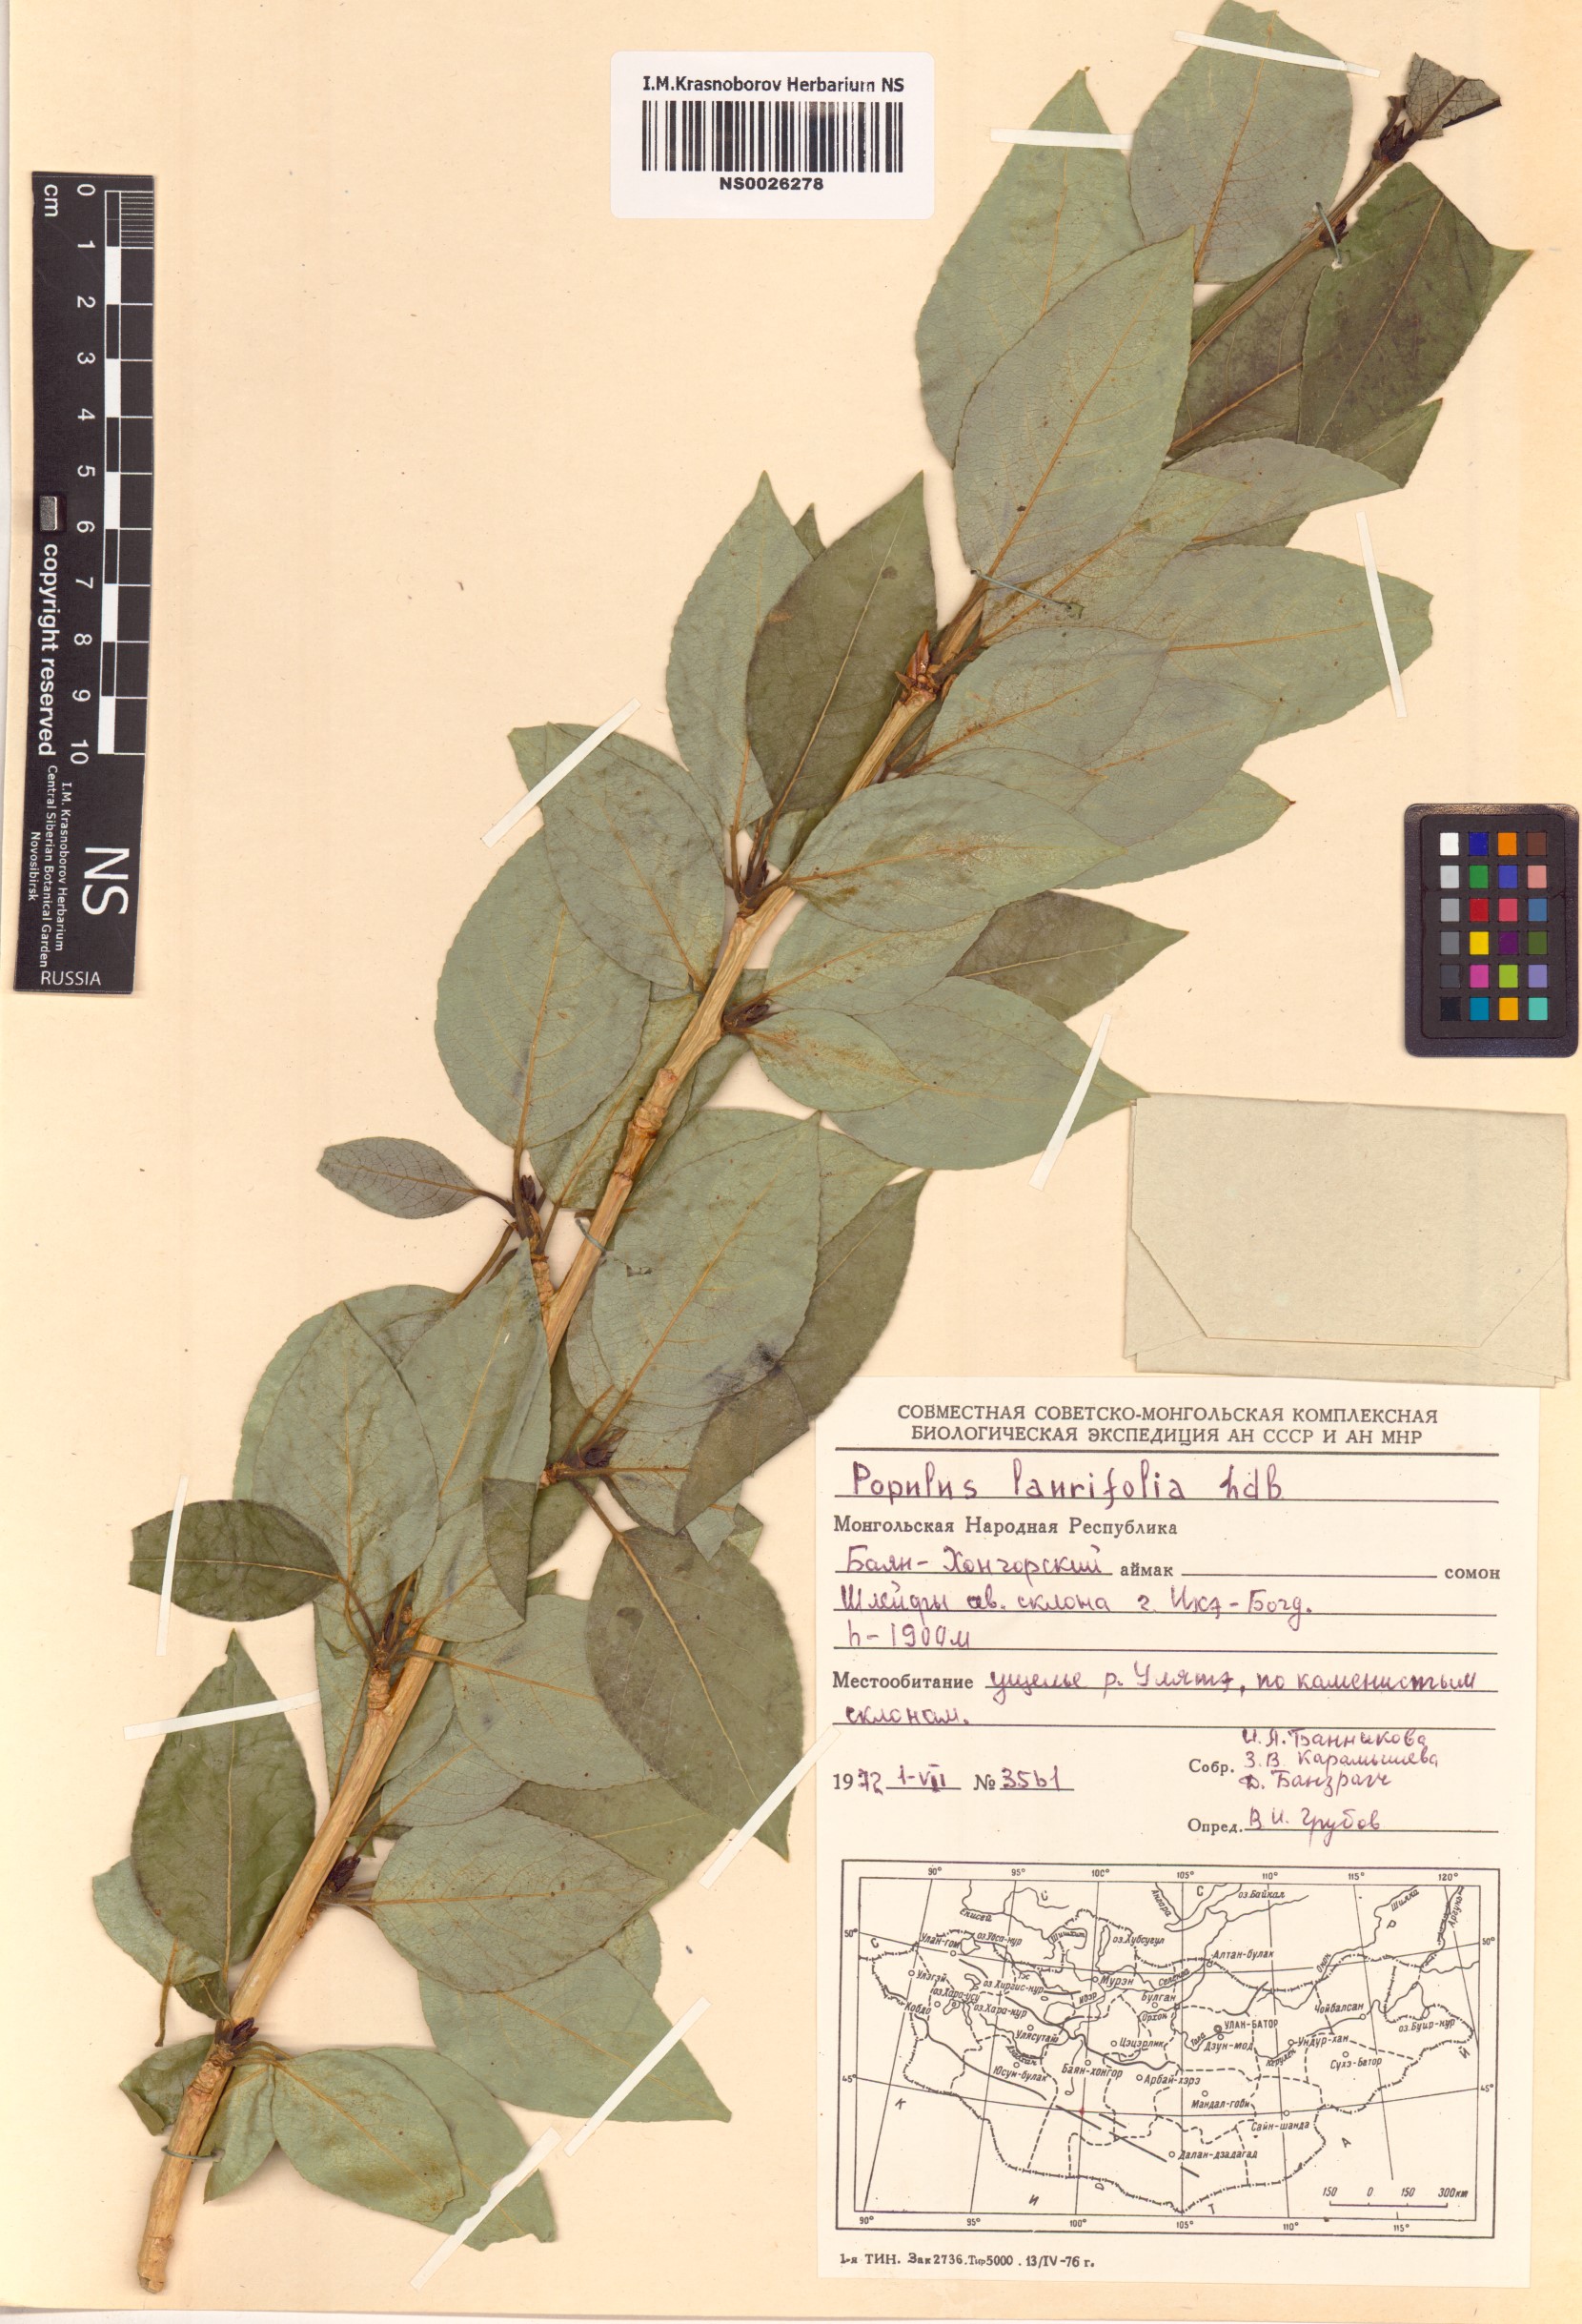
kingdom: Plantae
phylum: Tracheophyta
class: Magnoliopsida
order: Malpighiales
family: Salicaceae
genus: Populus
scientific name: Populus laurifolia
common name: Laurel-leaf poplar
